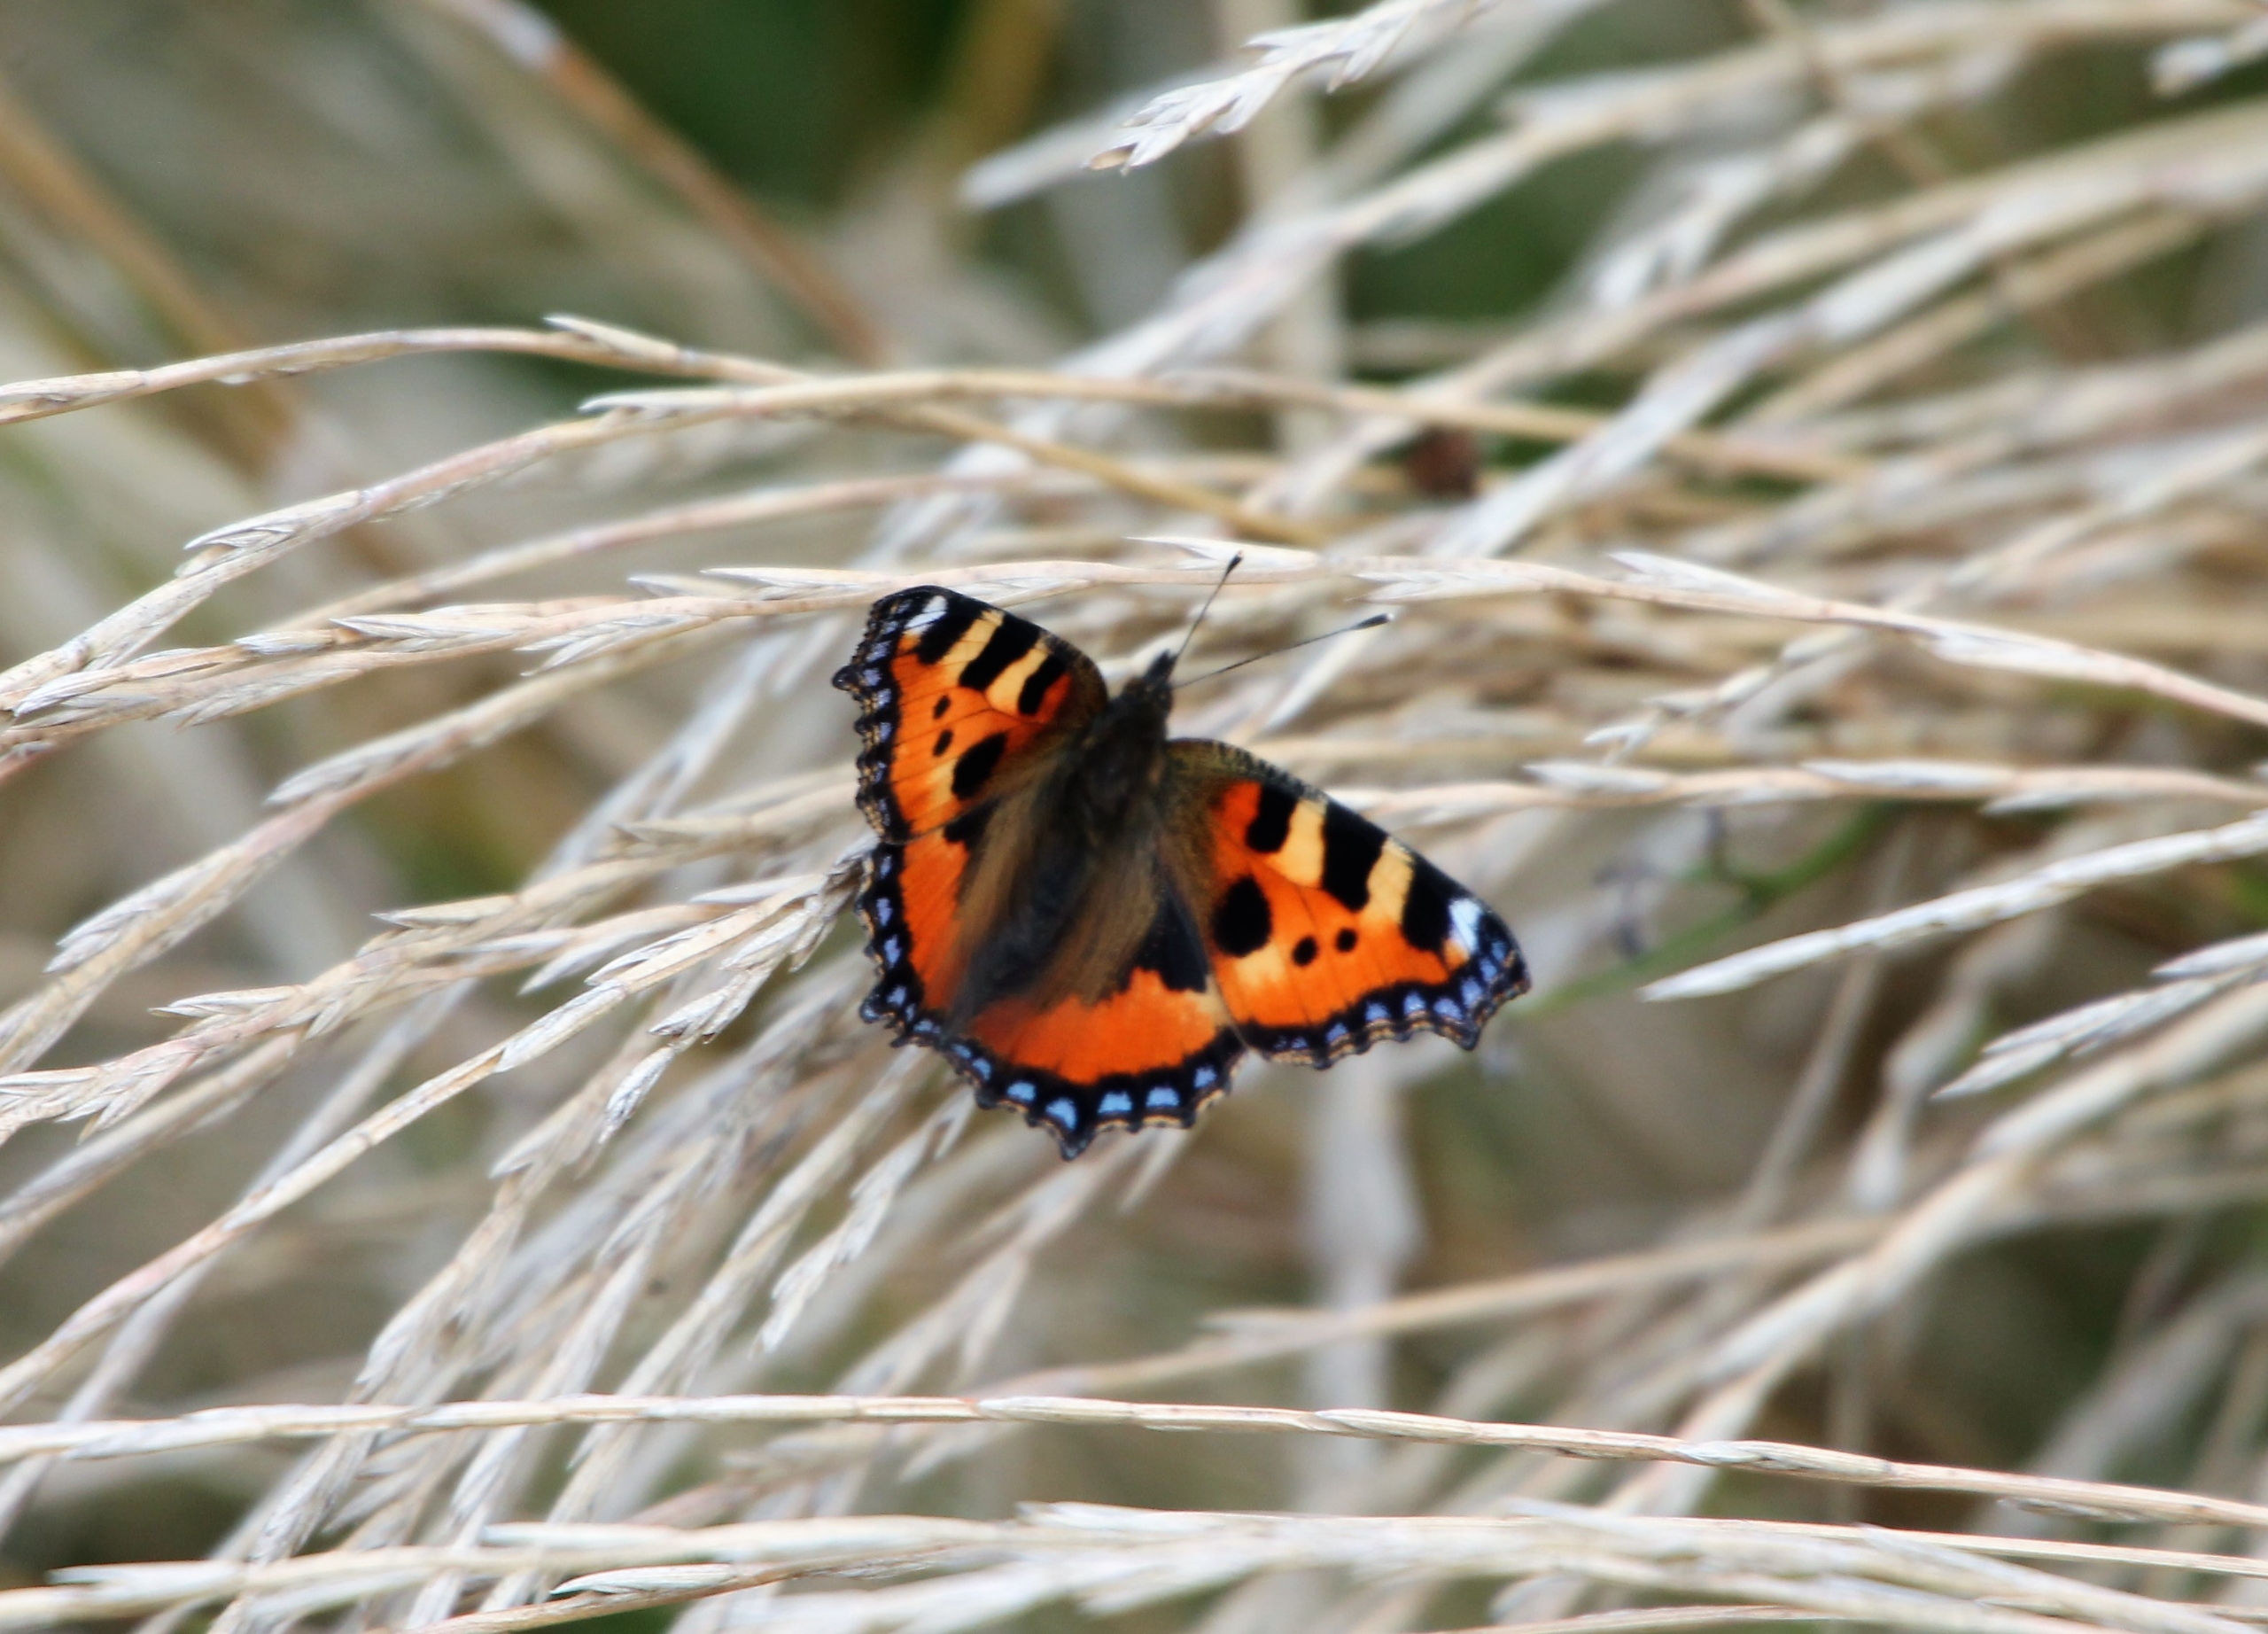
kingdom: Animalia
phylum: Arthropoda
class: Insecta
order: Lepidoptera
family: Nymphalidae
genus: Aglais
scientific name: Aglais urticae
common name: Nældens takvinge
